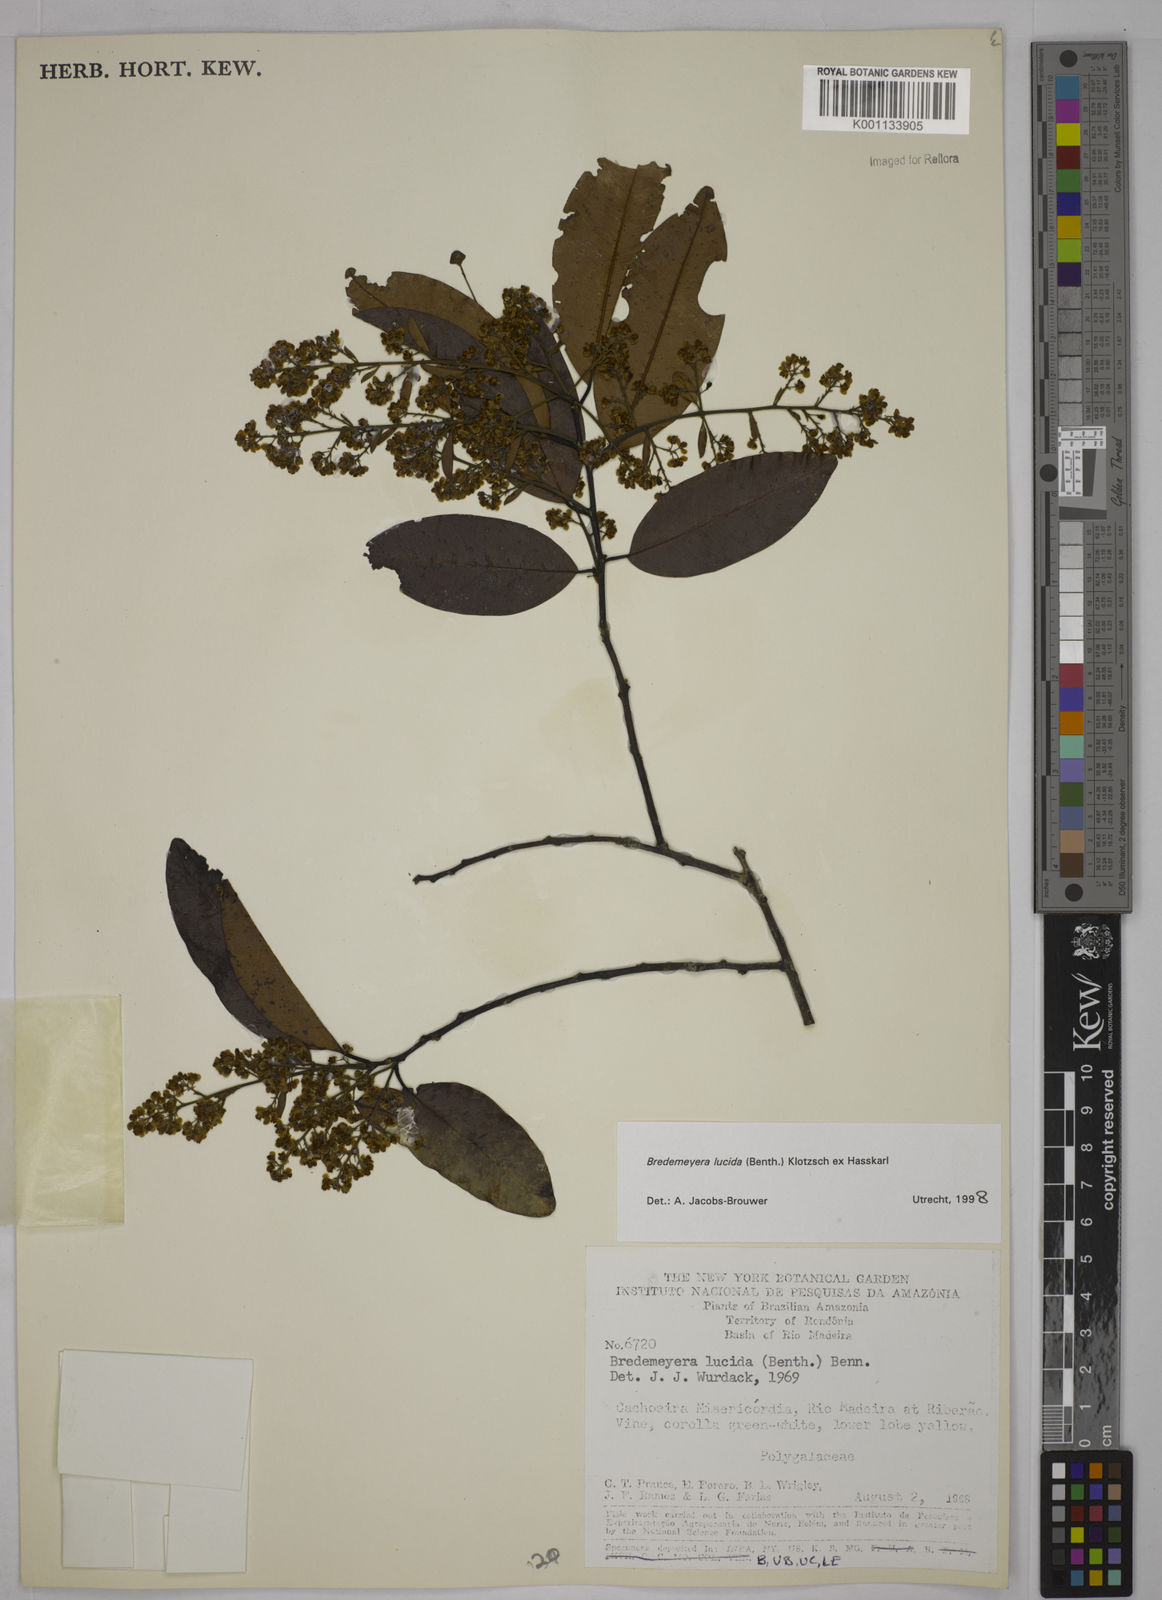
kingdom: Plantae
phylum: Tracheophyta
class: Magnoliopsida
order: Fabales
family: Polygalaceae
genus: Bredemeyera
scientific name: Bredemeyera lucida
